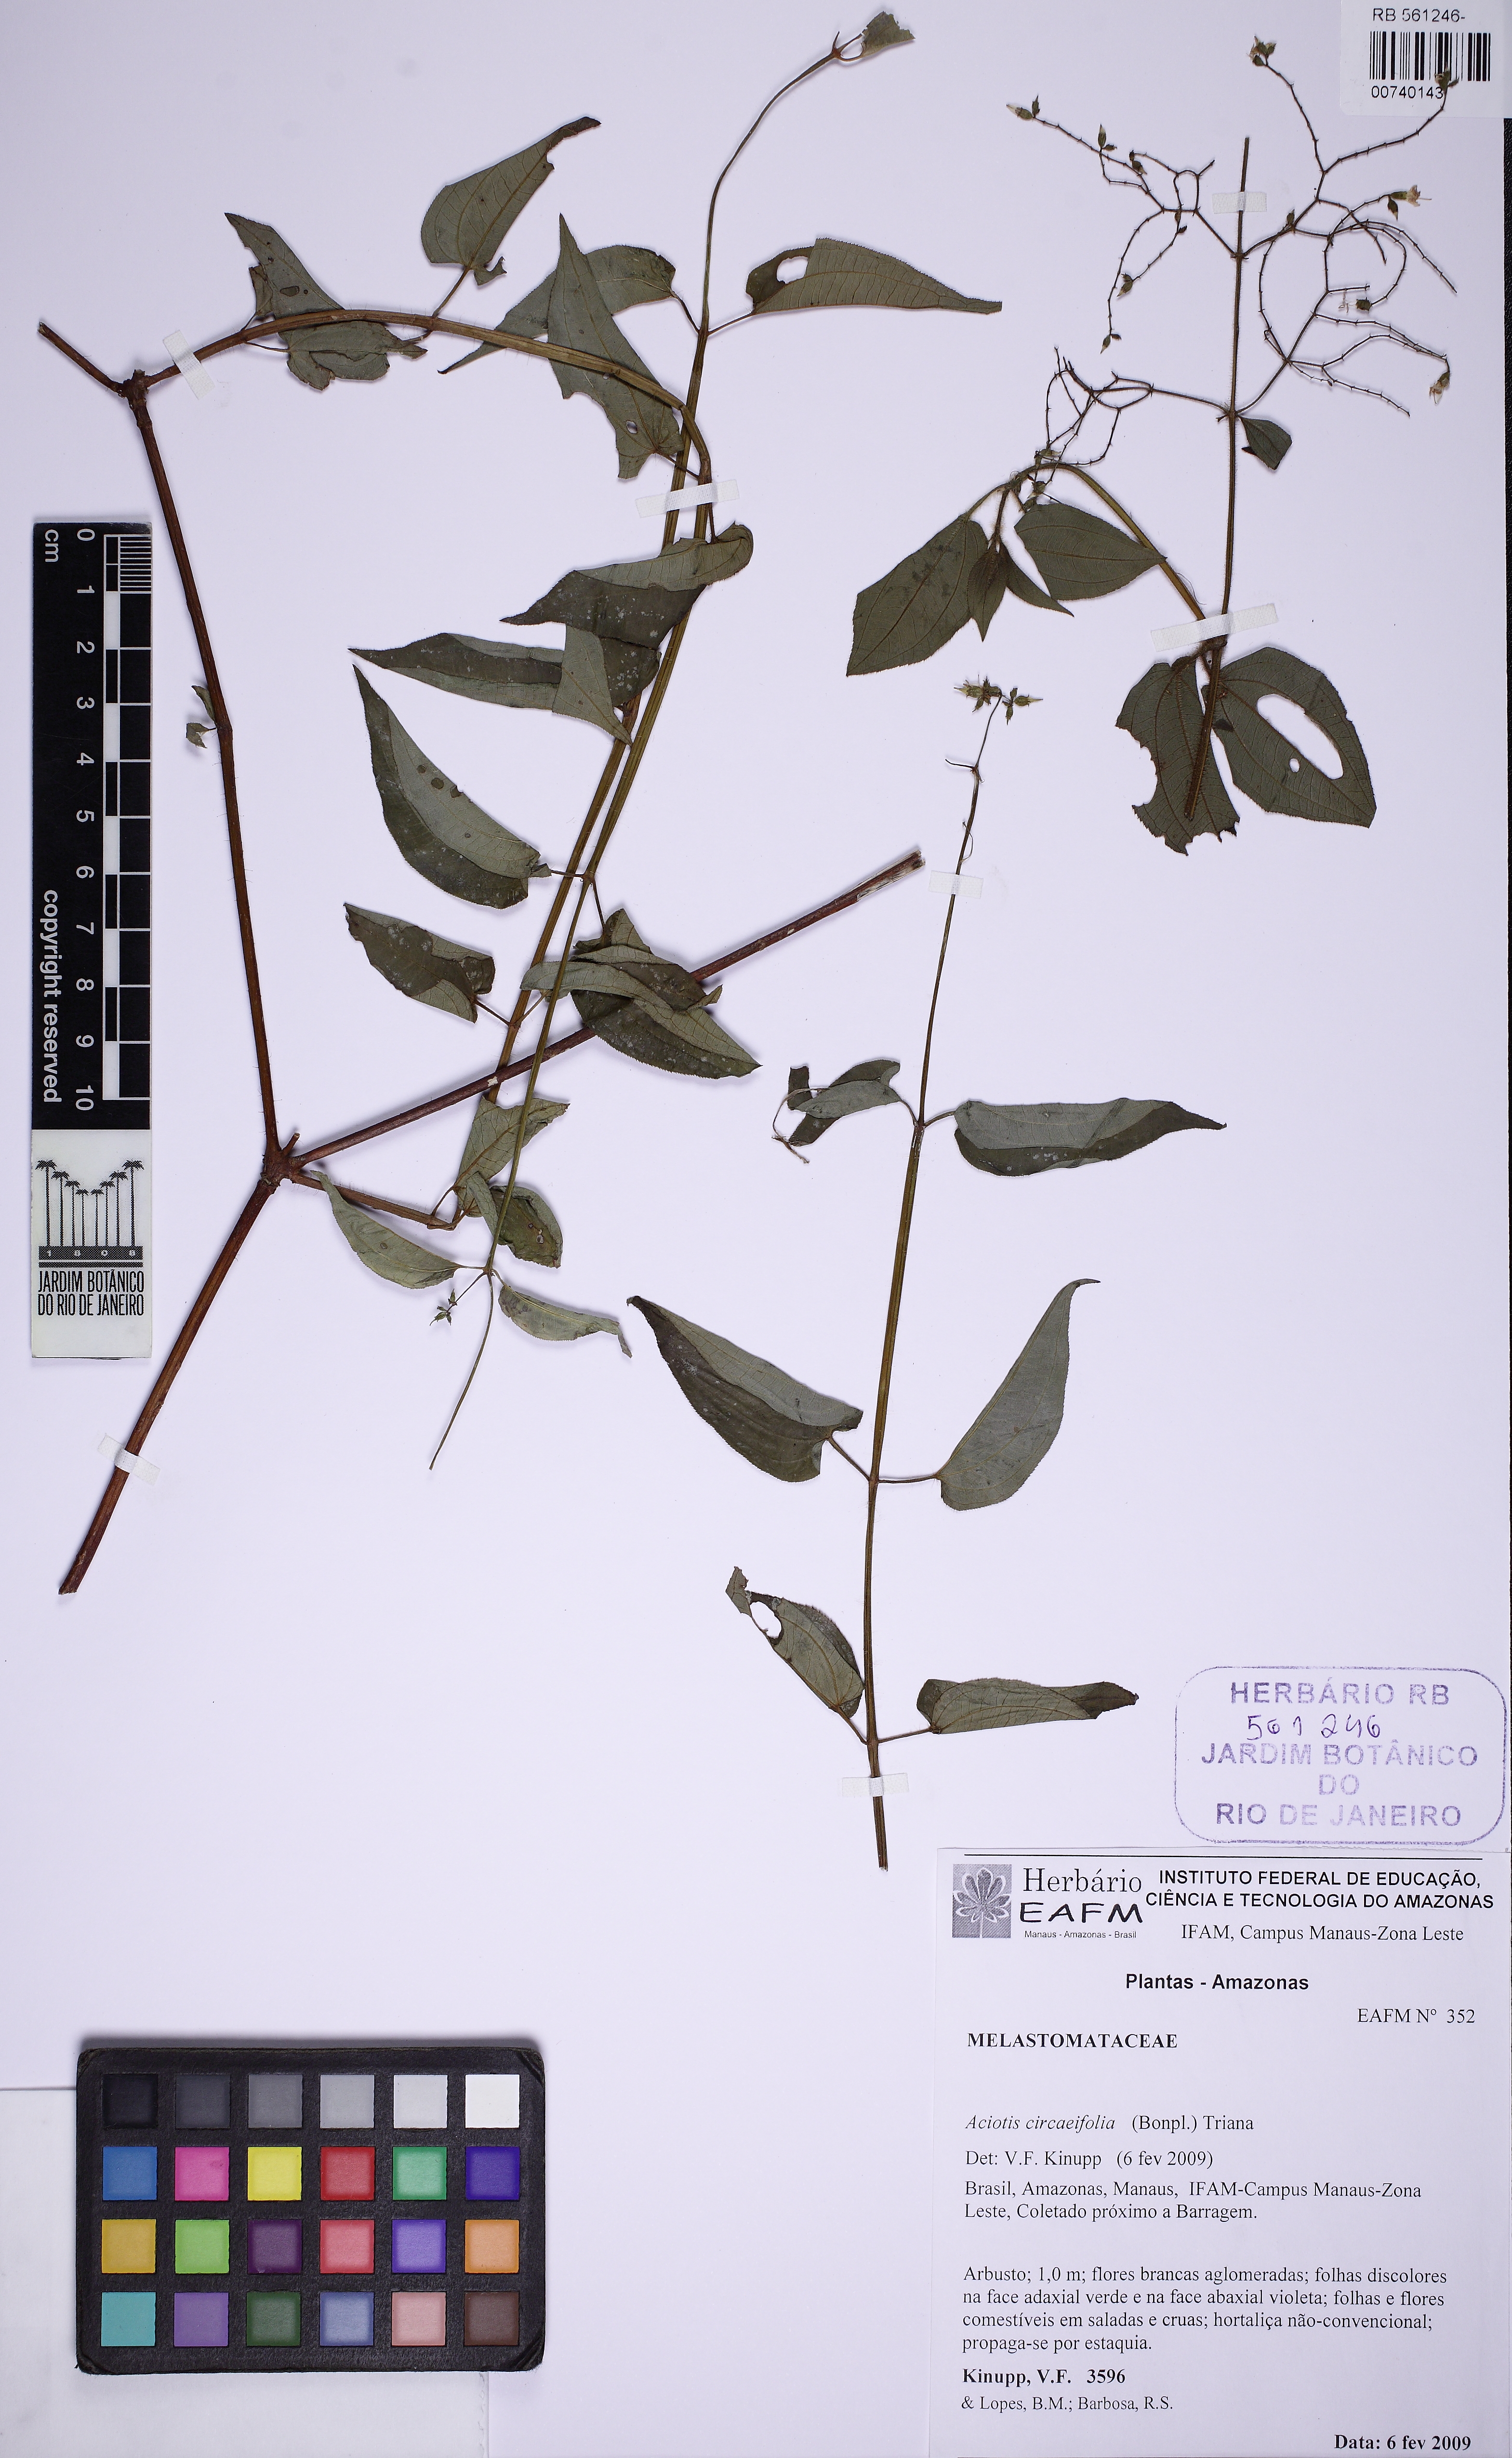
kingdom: Plantae
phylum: Tracheophyta
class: Magnoliopsida
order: Myrtales
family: Melastomataceae
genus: Aciotis
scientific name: Aciotis circaeifolia
